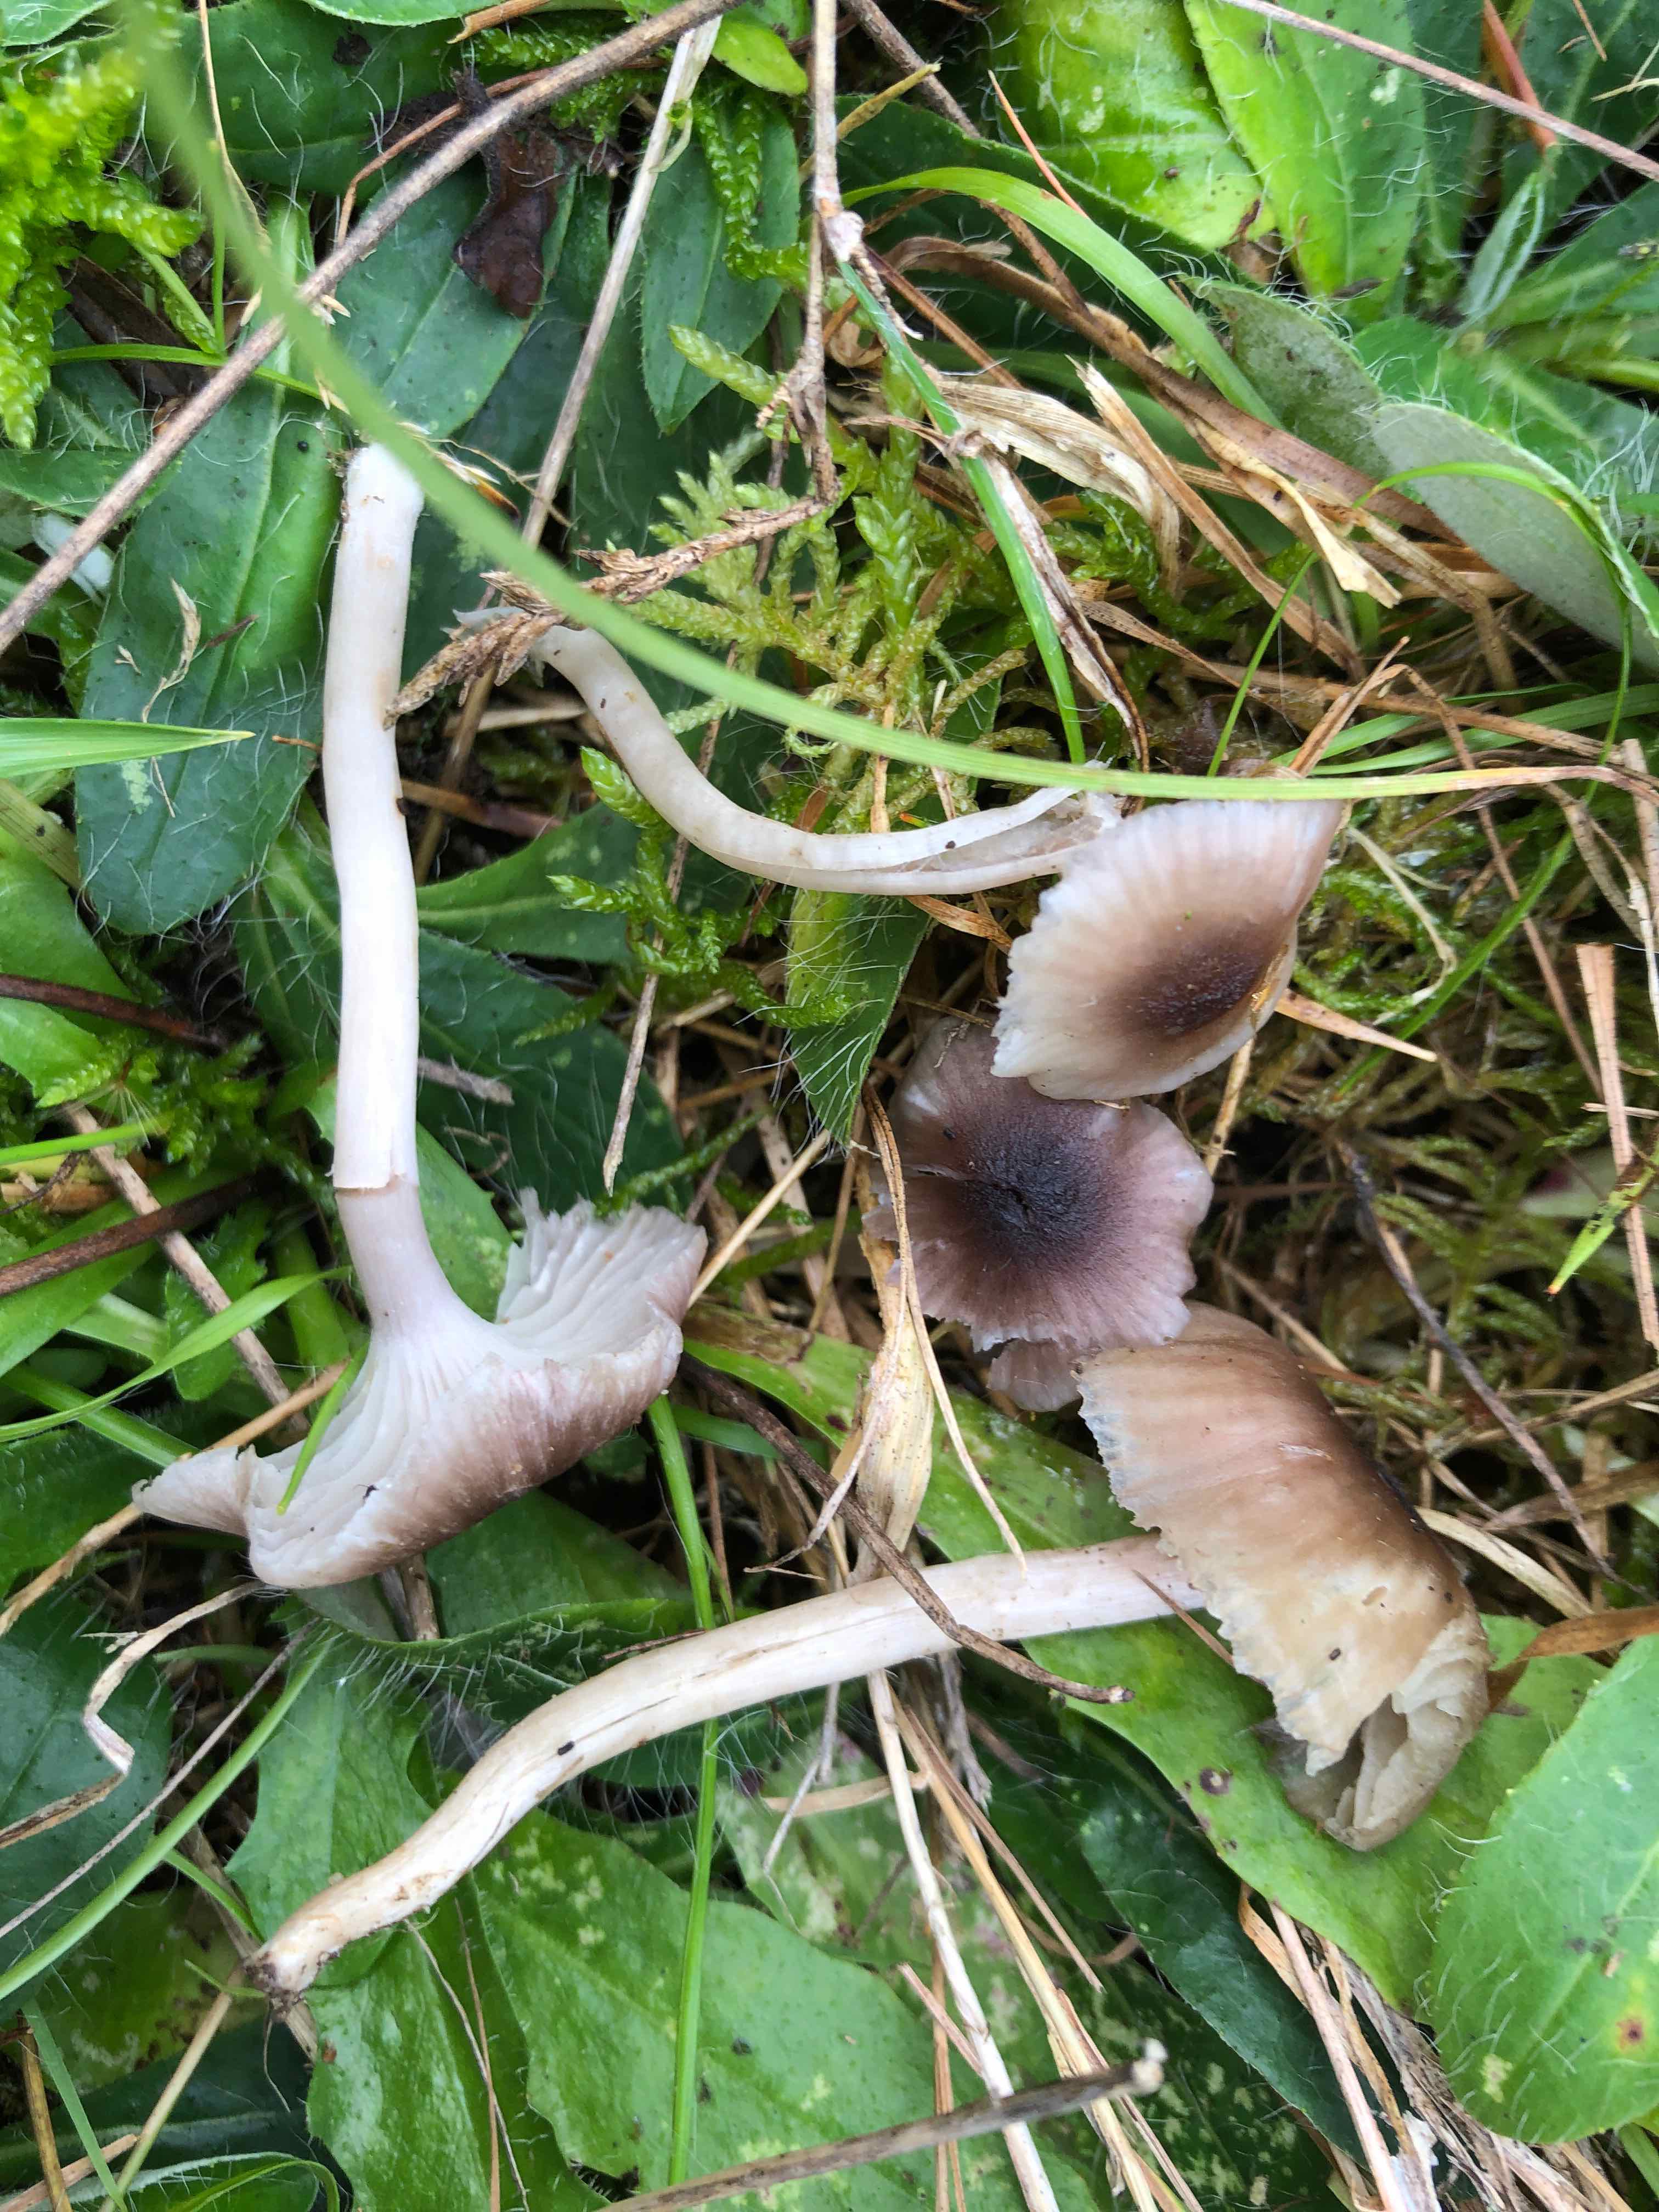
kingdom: Fungi
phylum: Basidiomycota
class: Agaricomycetes
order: Agaricales
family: Hygrophoraceae
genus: Cuphophyllus
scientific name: Cuphophyllus
